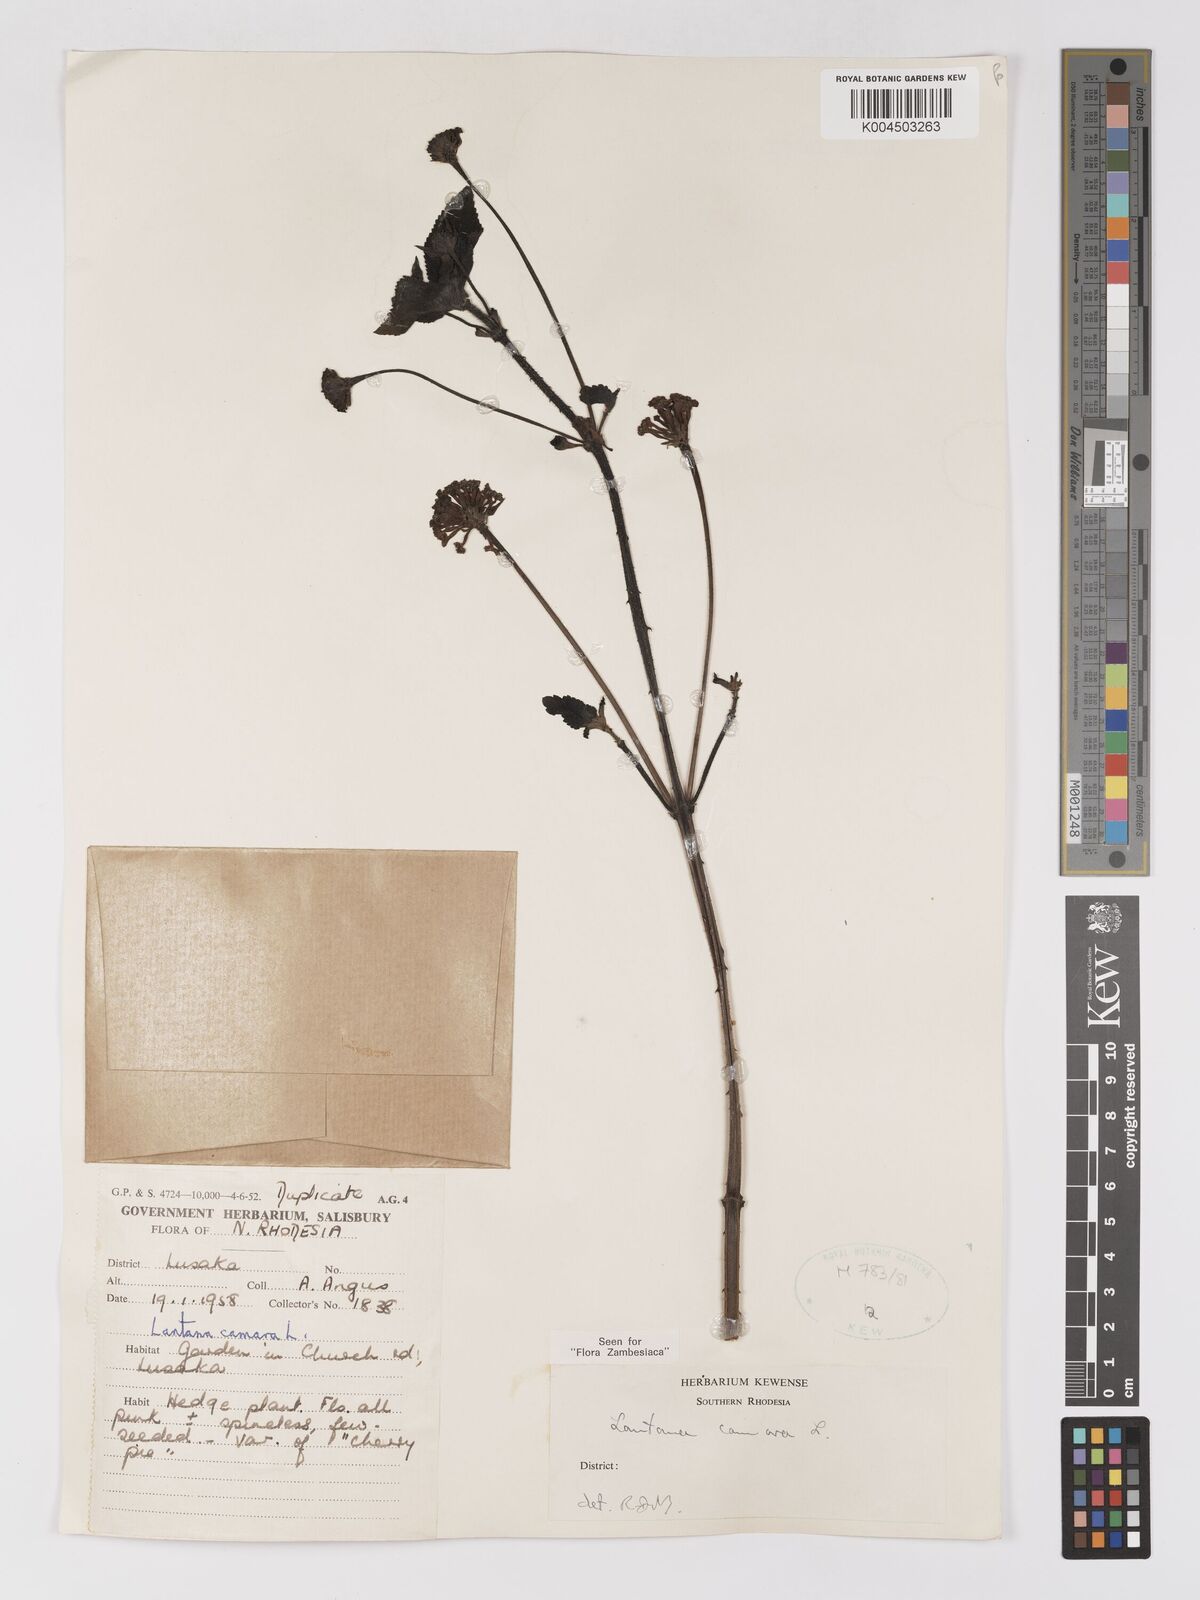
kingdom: Plantae
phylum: Tracheophyta
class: Magnoliopsida
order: Lamiales
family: Verbenaceae
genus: Lantana
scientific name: Lantana camara
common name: Lantana
